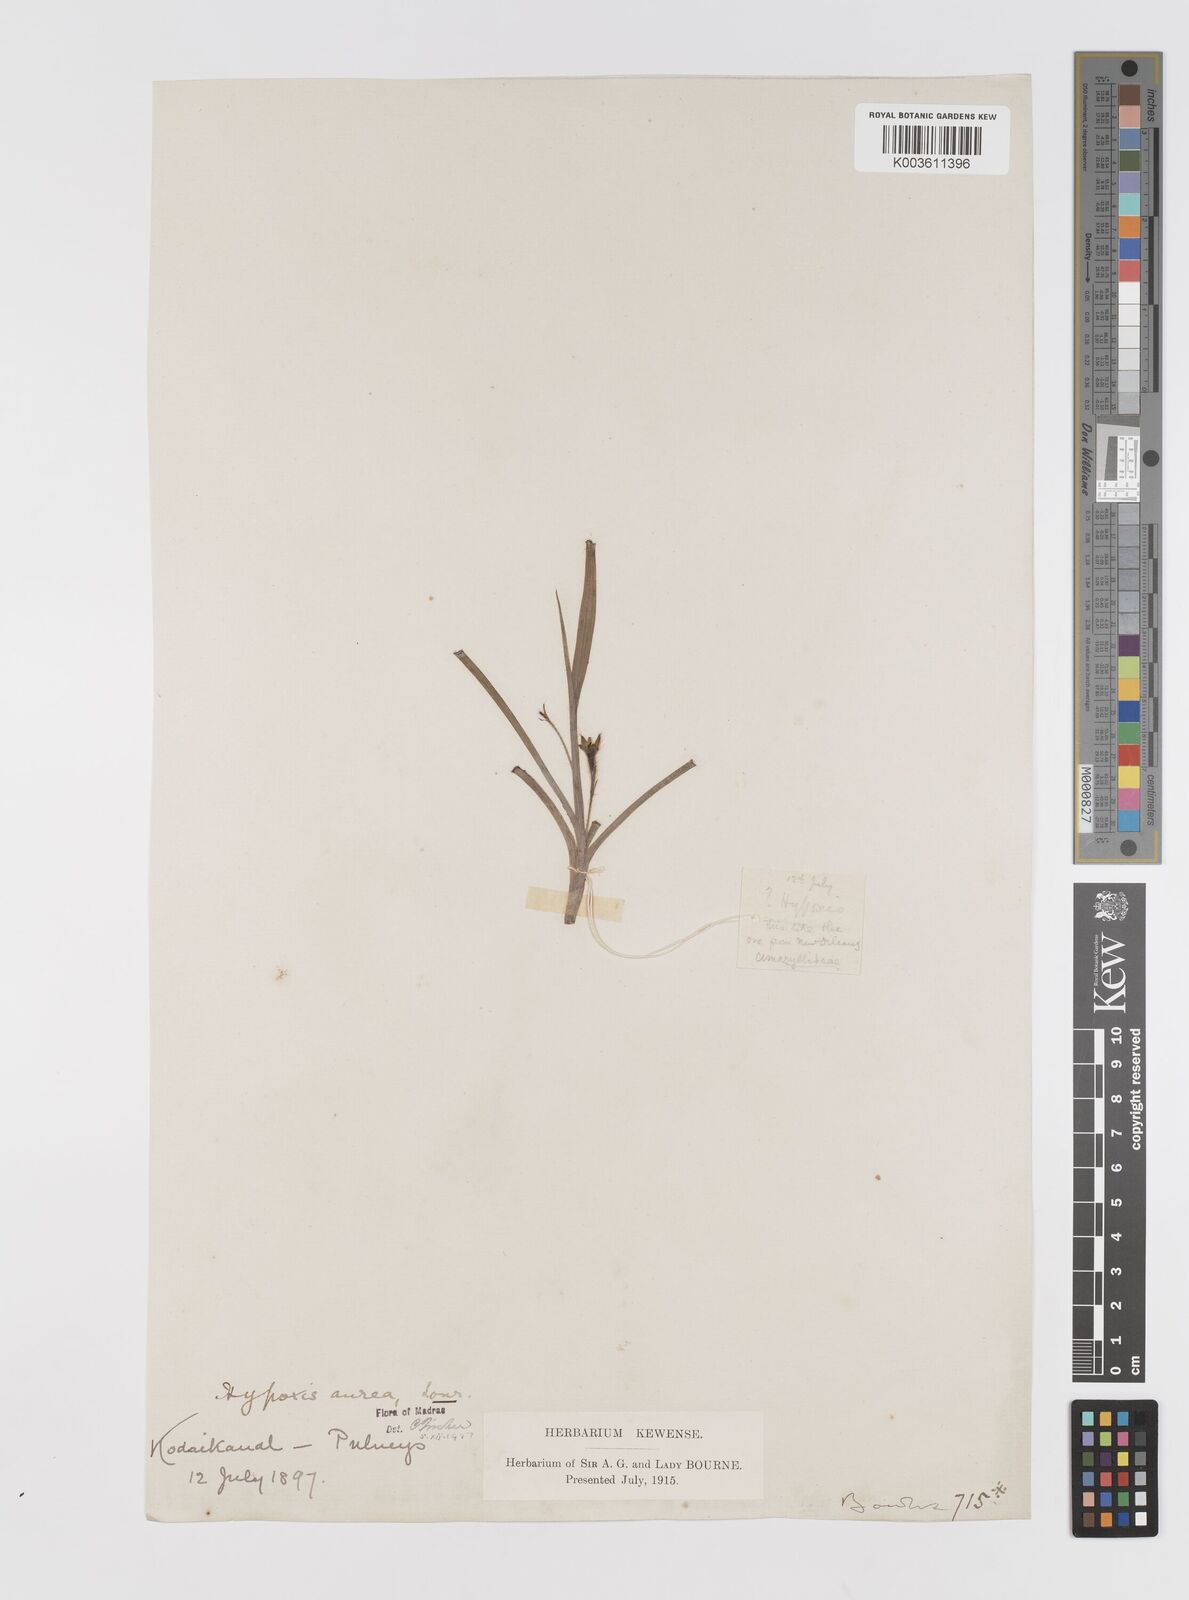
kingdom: Plantae
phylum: Tracheophyta
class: Liliopsida
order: Asparagales
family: Hypoxidaceae
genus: Hypoxis
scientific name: Hypoxis aurea
